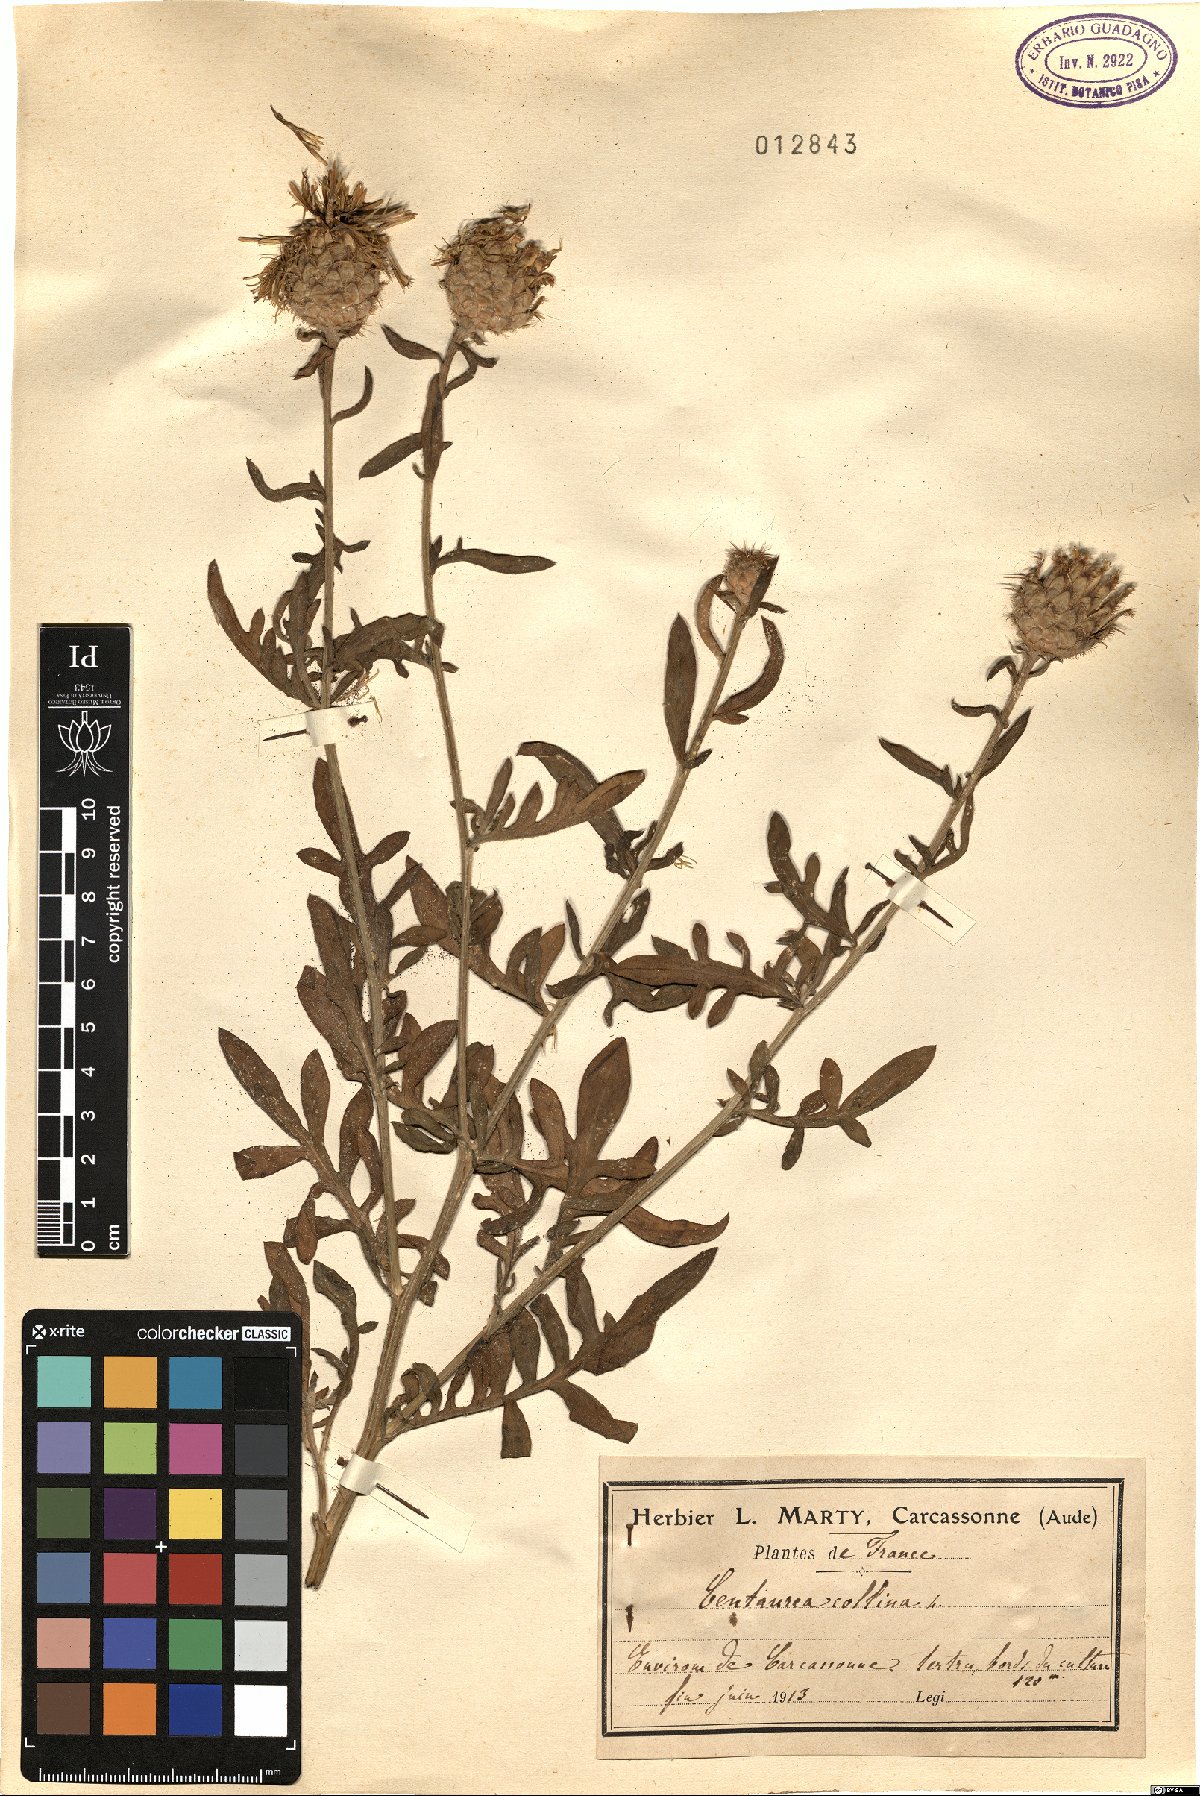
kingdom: Plantae
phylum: Tracheophyta
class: Magnoliopsida
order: Asterales
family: Asteraceae
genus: Centaurea
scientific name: Centaurea collina
